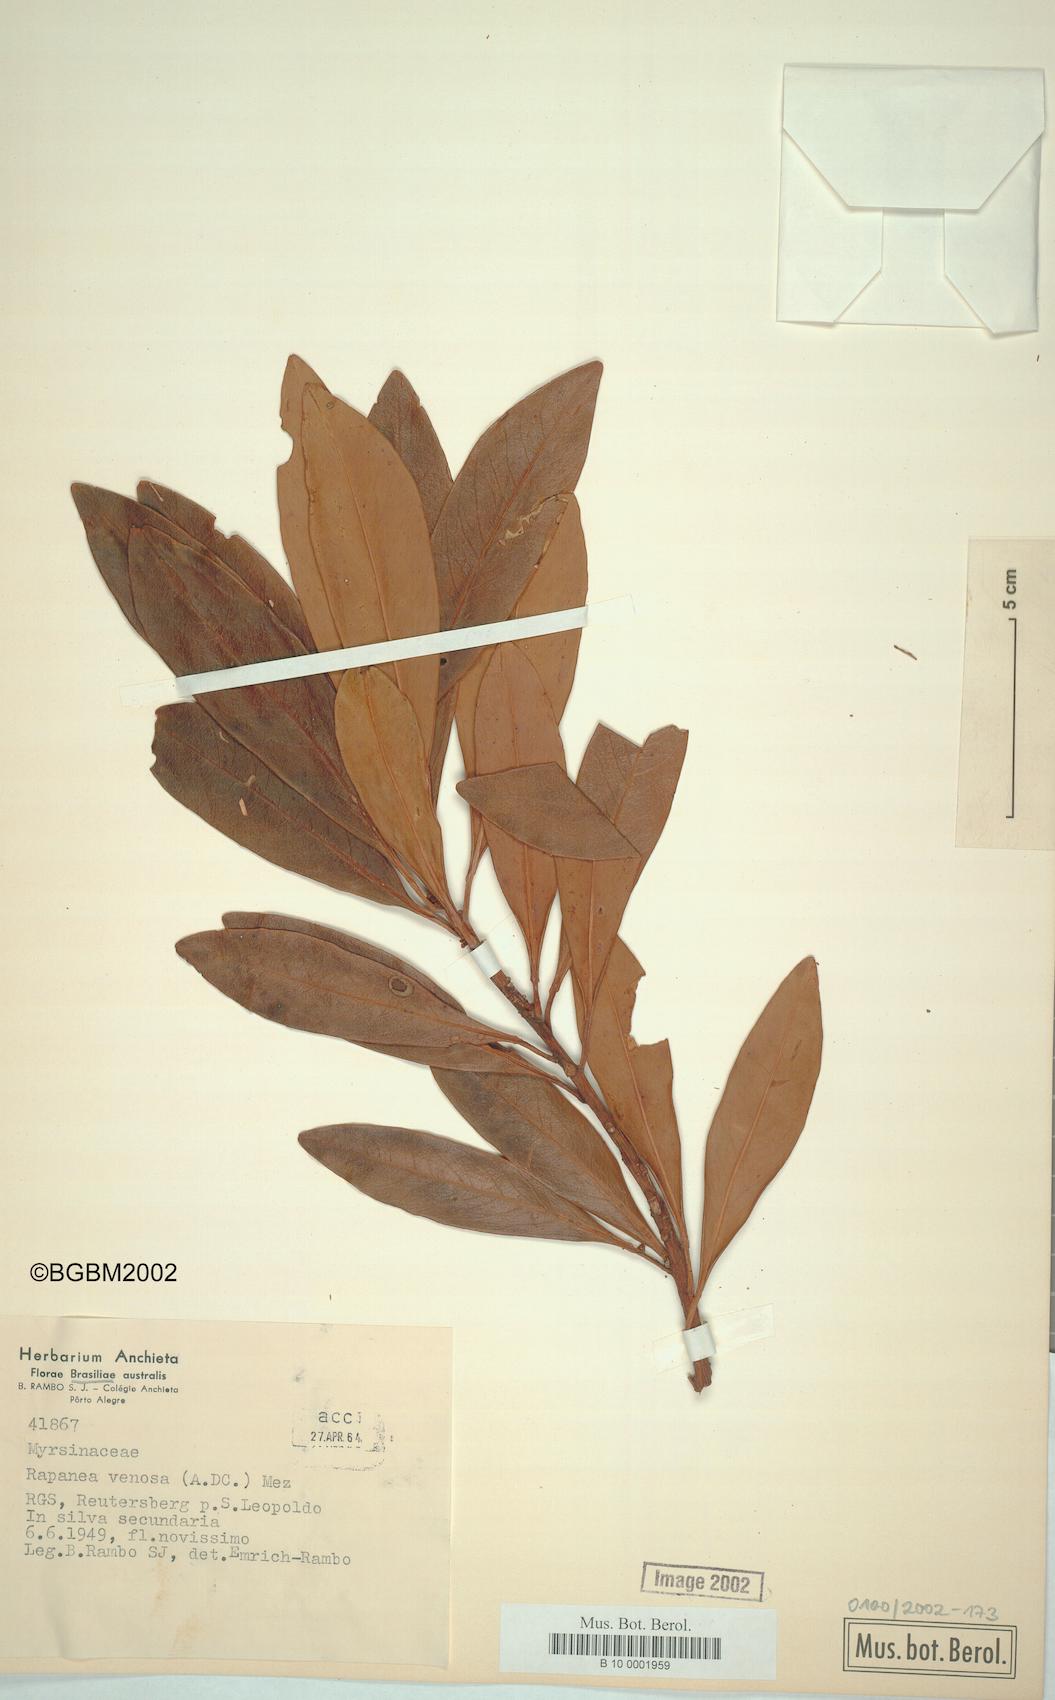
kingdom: Plantae
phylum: Tracheophyta
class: Magnoliopsida
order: Ericales
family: Primulaceae
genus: Myrsine
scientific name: Myrsine
